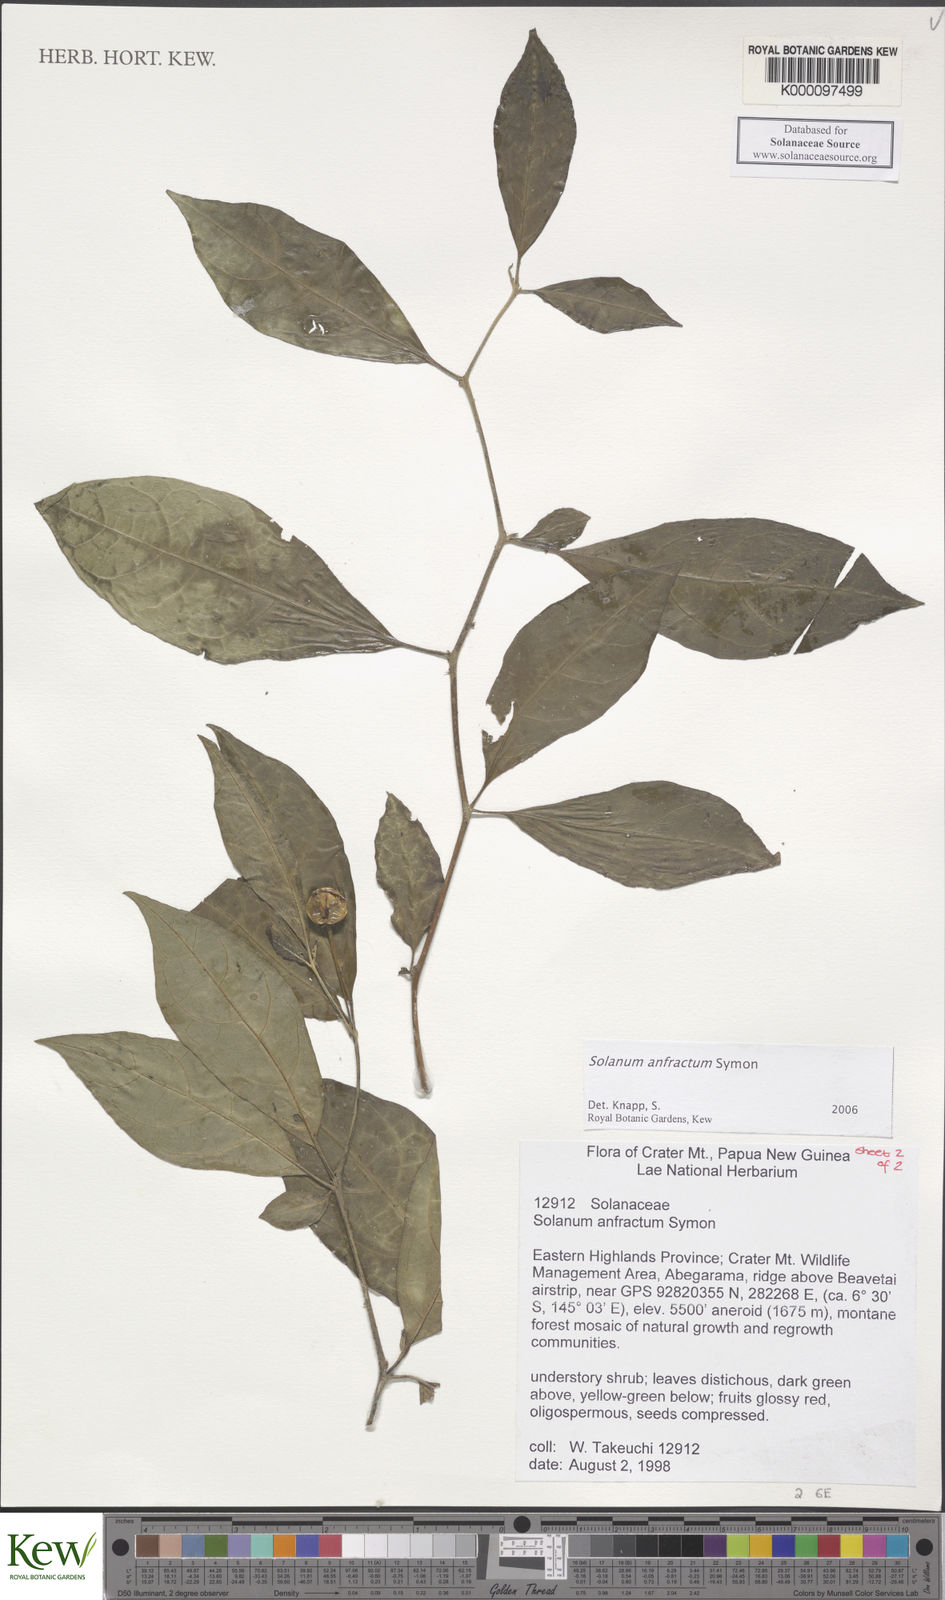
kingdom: Plantae
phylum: Tracheophyta
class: Magnoliopsida
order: Solanales
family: Solanaceae
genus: Solanum
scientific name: Solanum anfractum
